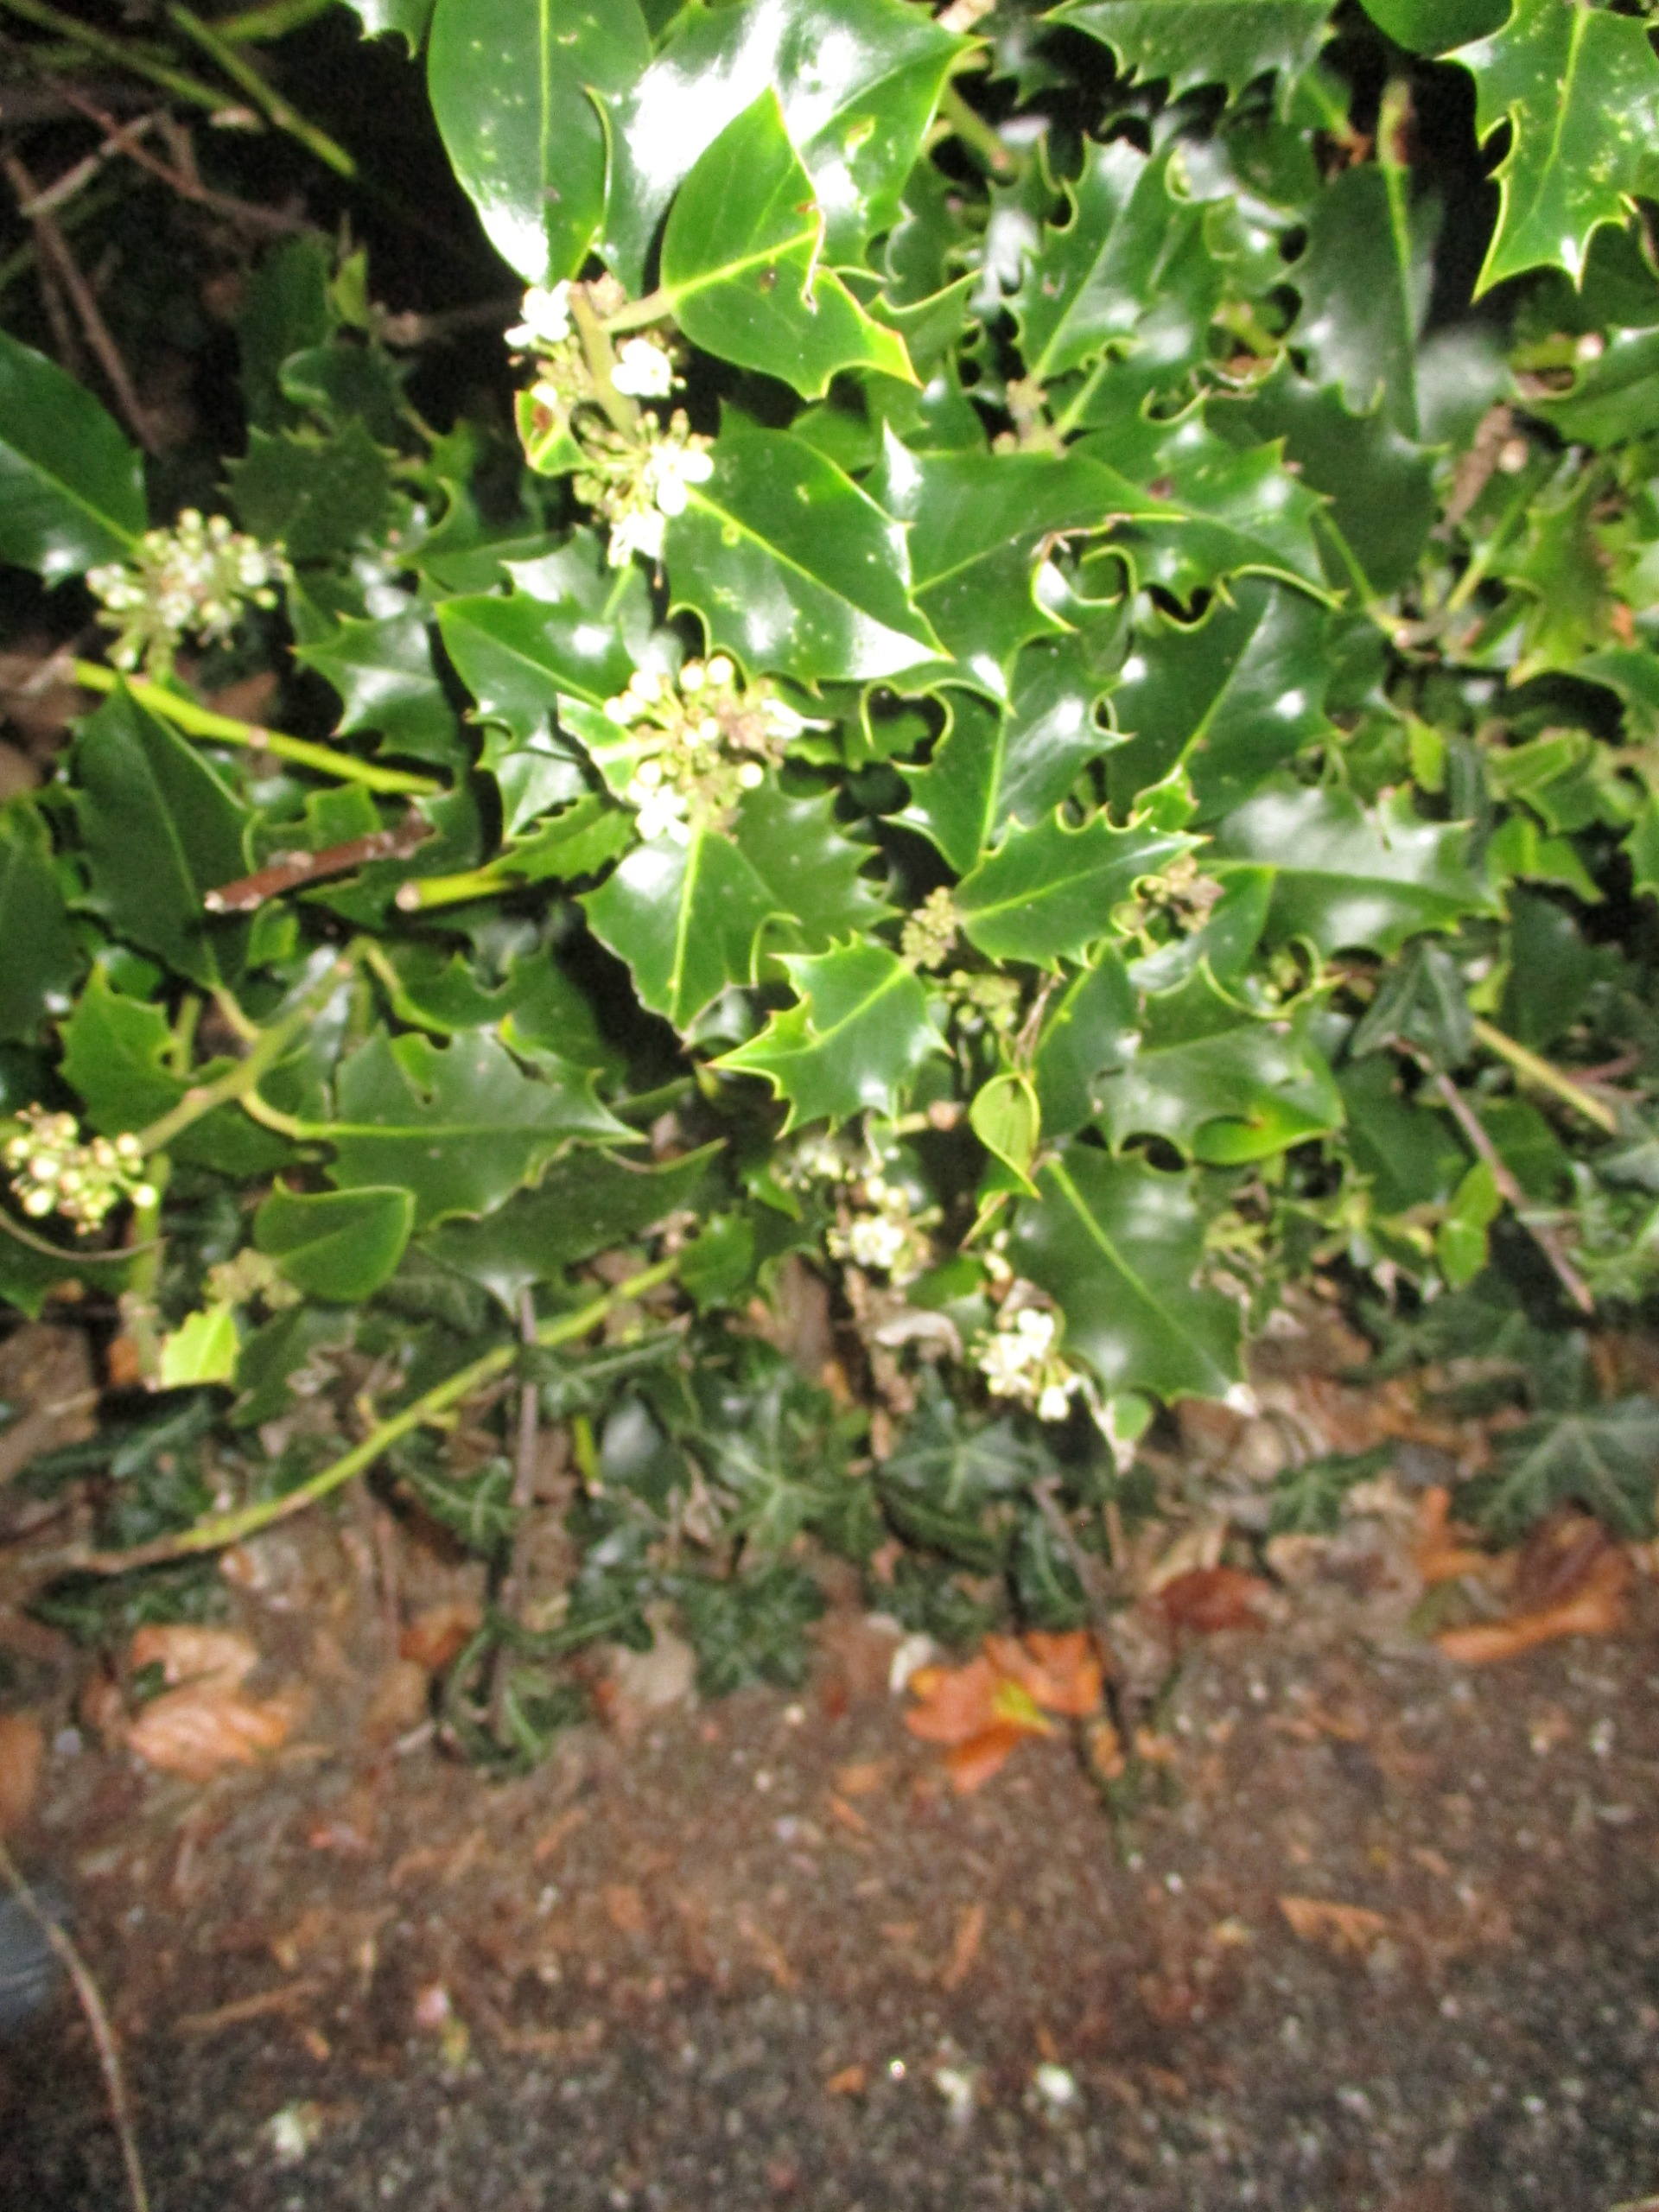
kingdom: Plantae
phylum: Tracheophyta
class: Magnoliopsida
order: Aquifoliales
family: Aquifoliaceae
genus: Ilex
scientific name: Ilex aquifolium
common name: Kristtorn
